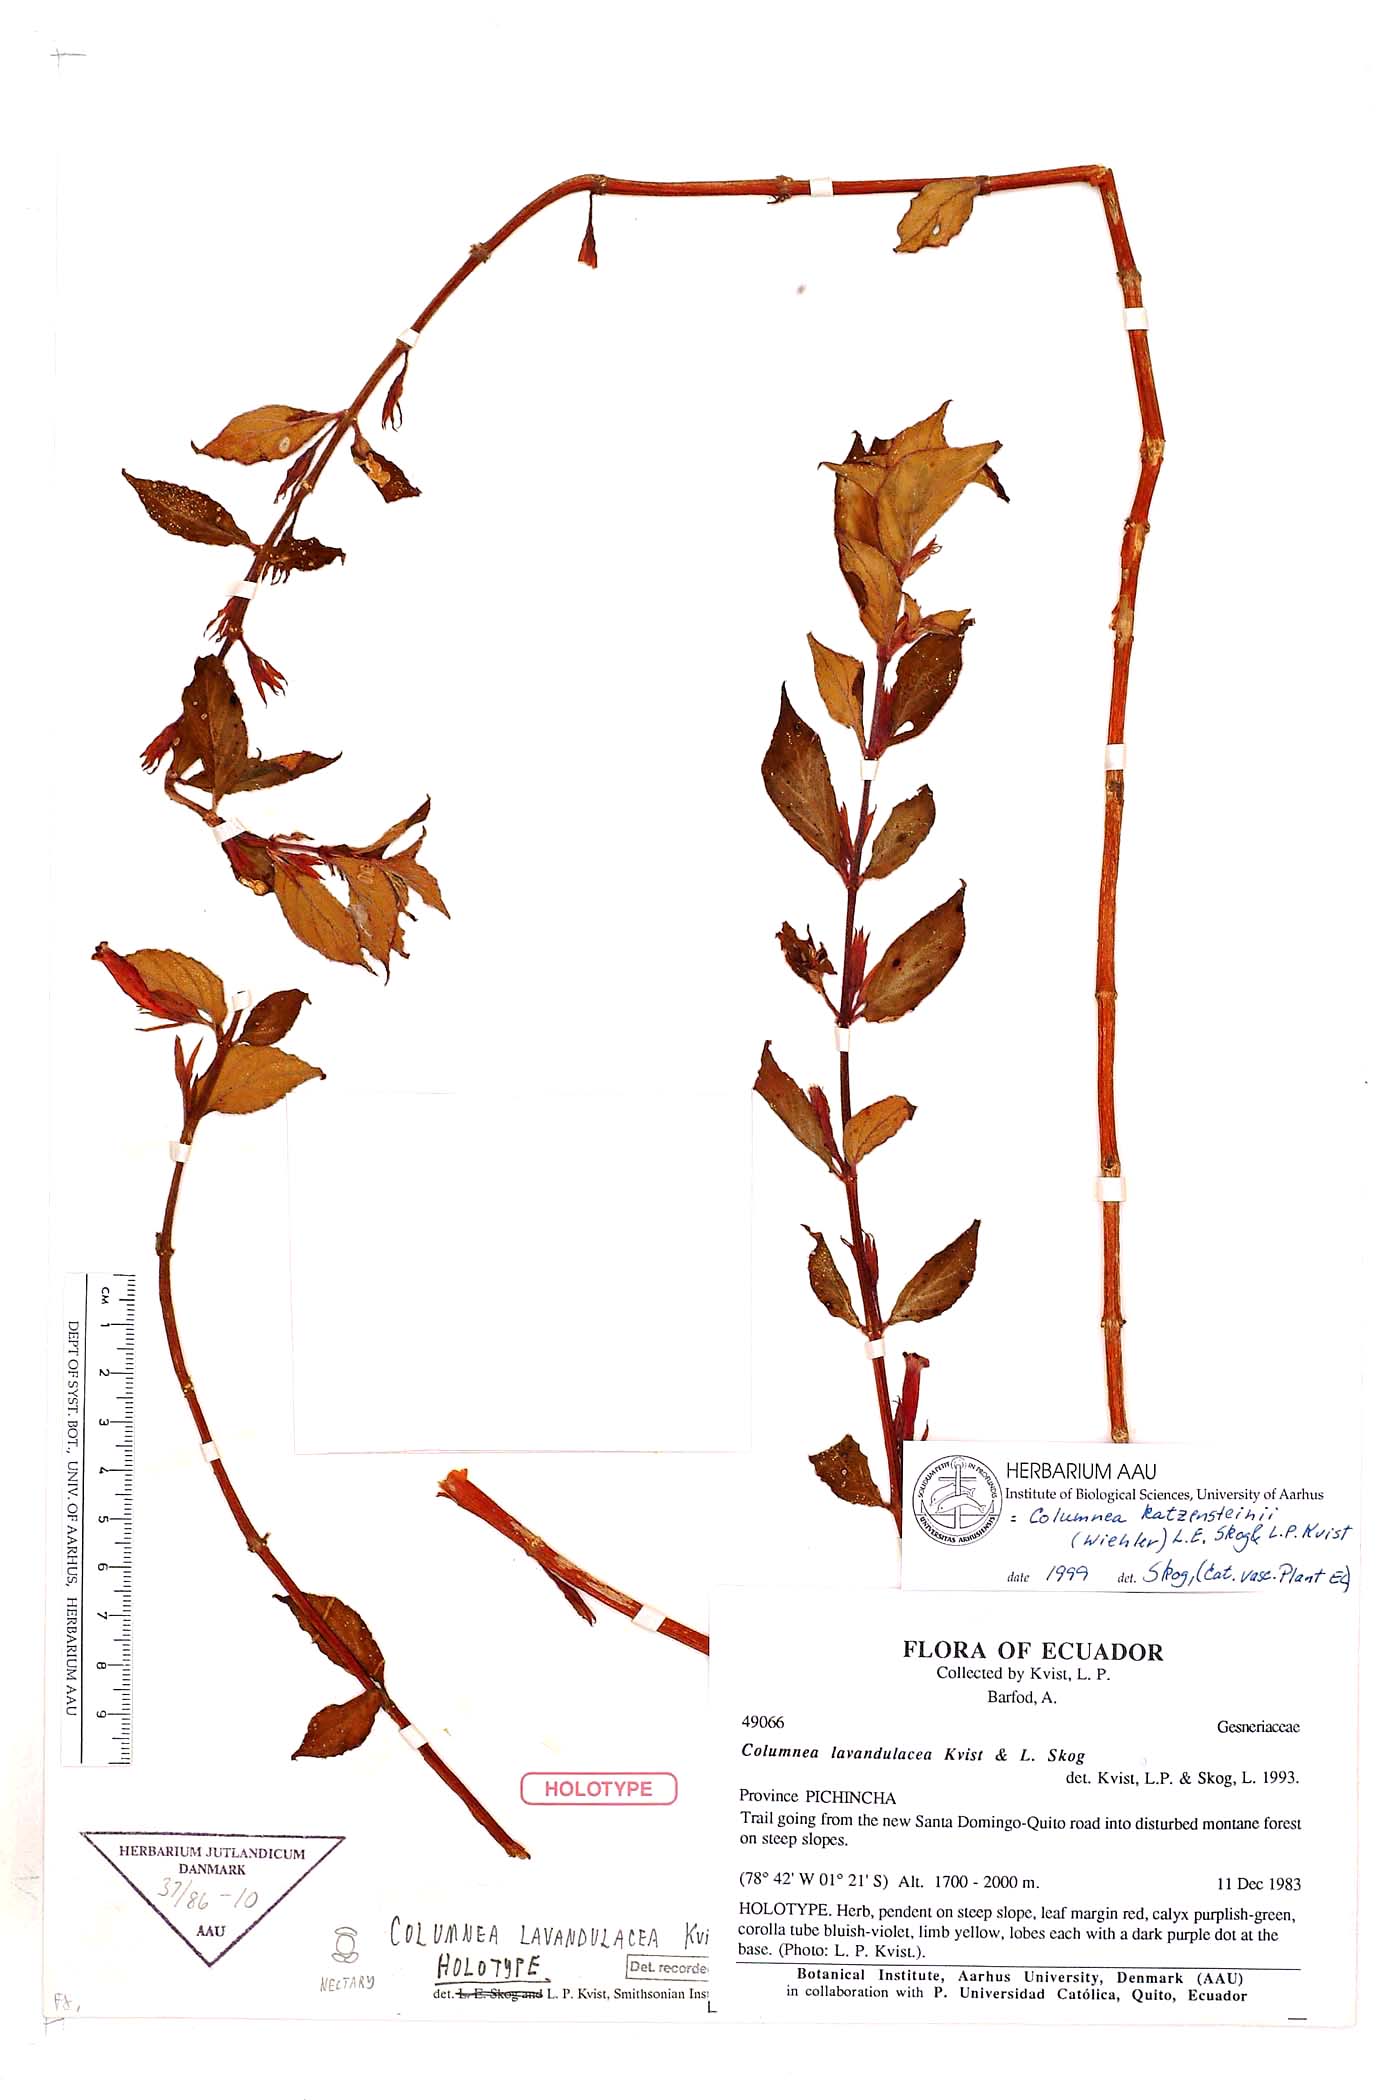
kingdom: Plantae
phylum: Tracheophyta
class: Magnoliopsida
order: Lamiales
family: Gesneriaceae
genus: Columnea
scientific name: Columnea katzensteinii
